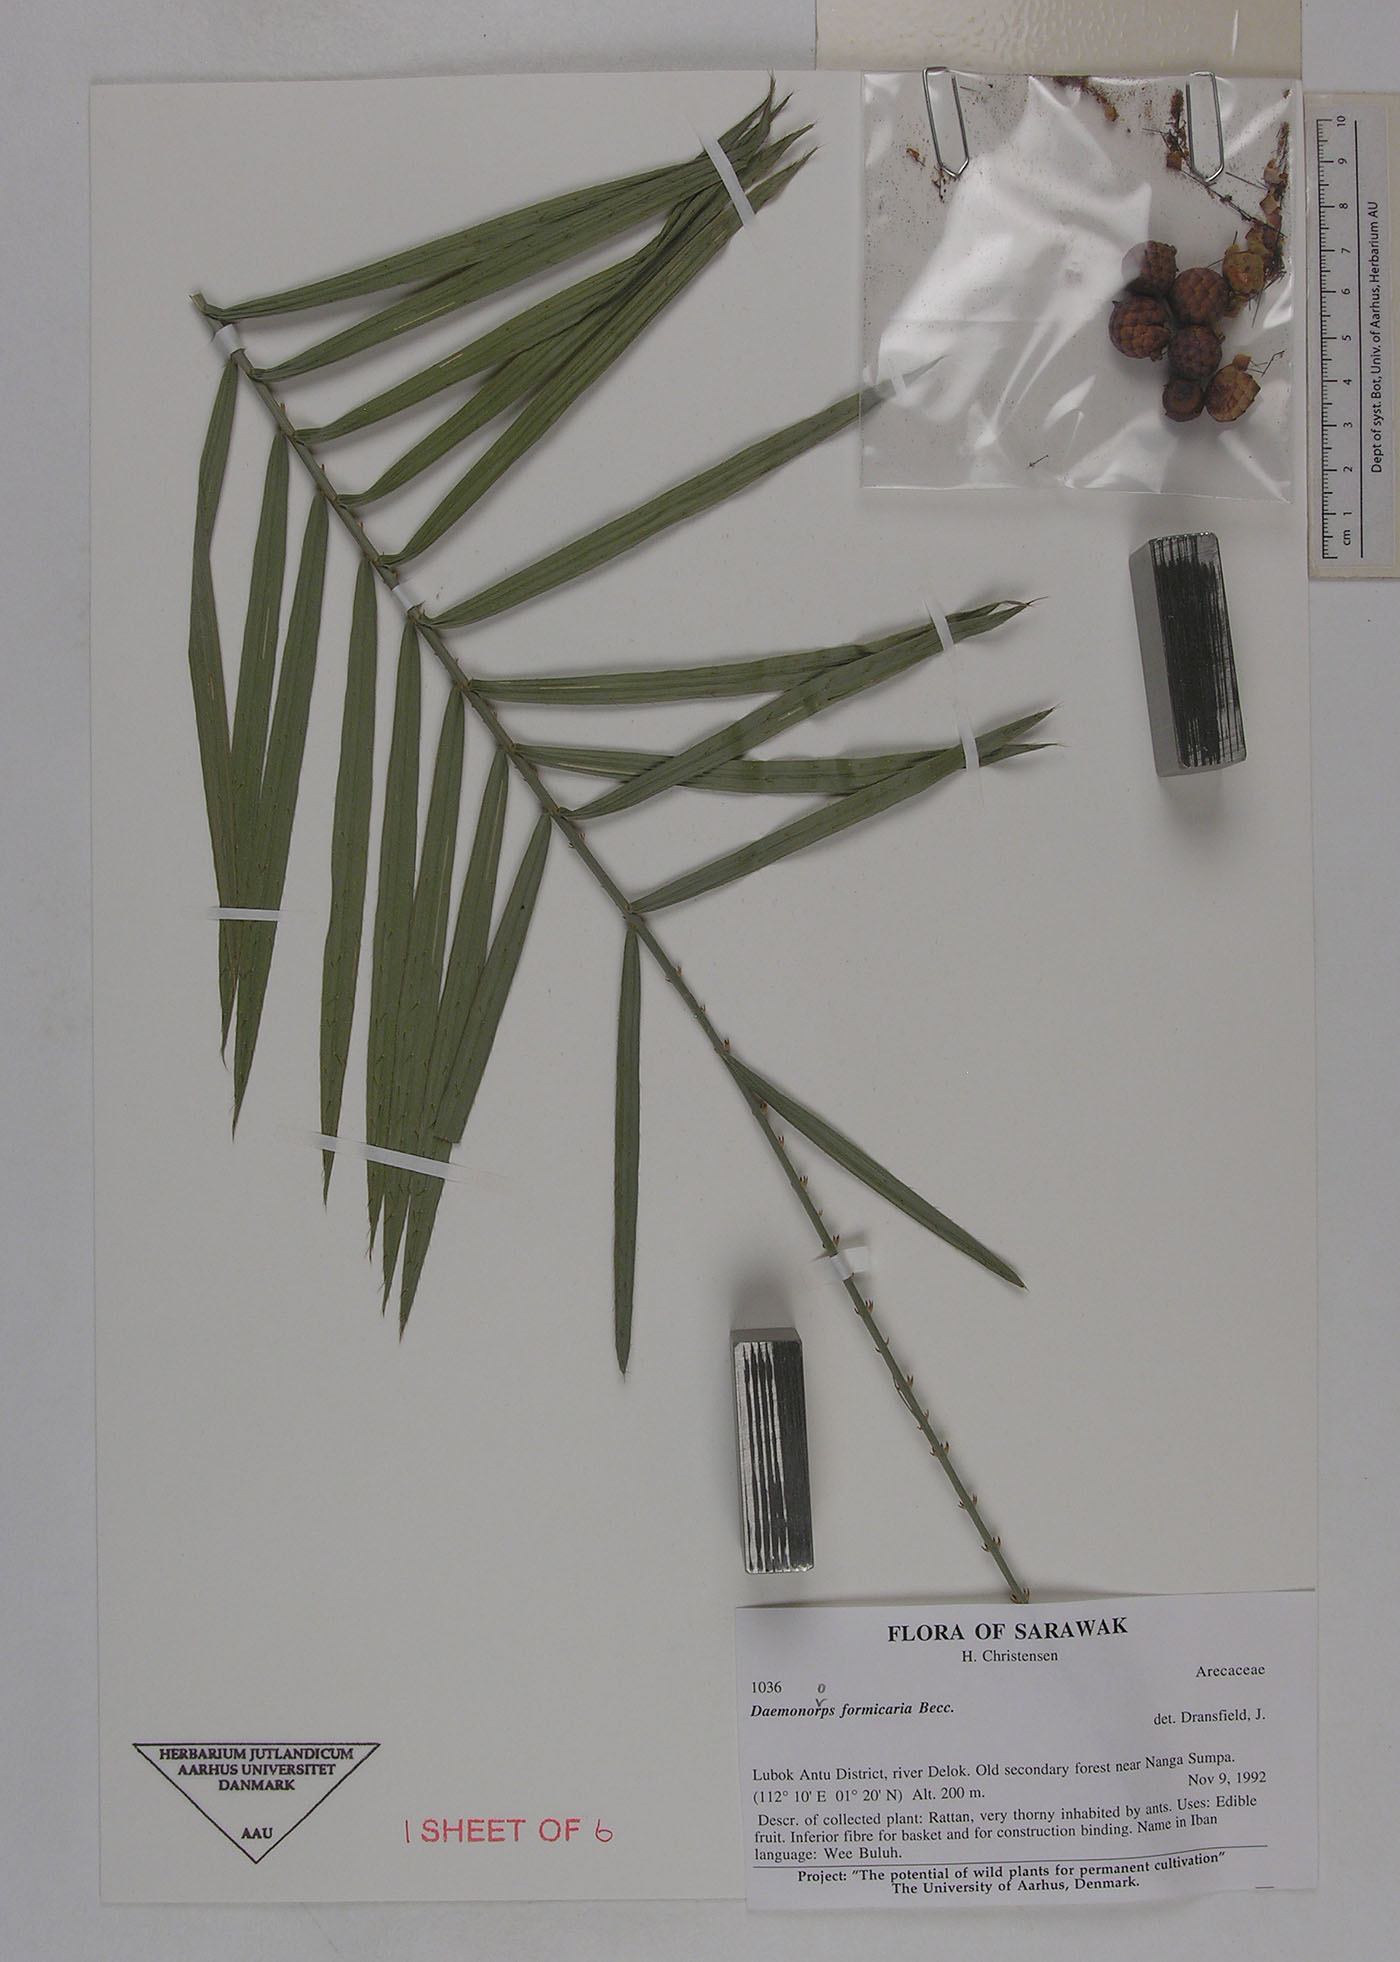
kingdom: Plantae
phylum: Tracheophyta
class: Liliopsida
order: Arecales
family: Arecaceae
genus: Calamus
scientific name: Calamus formicarius
